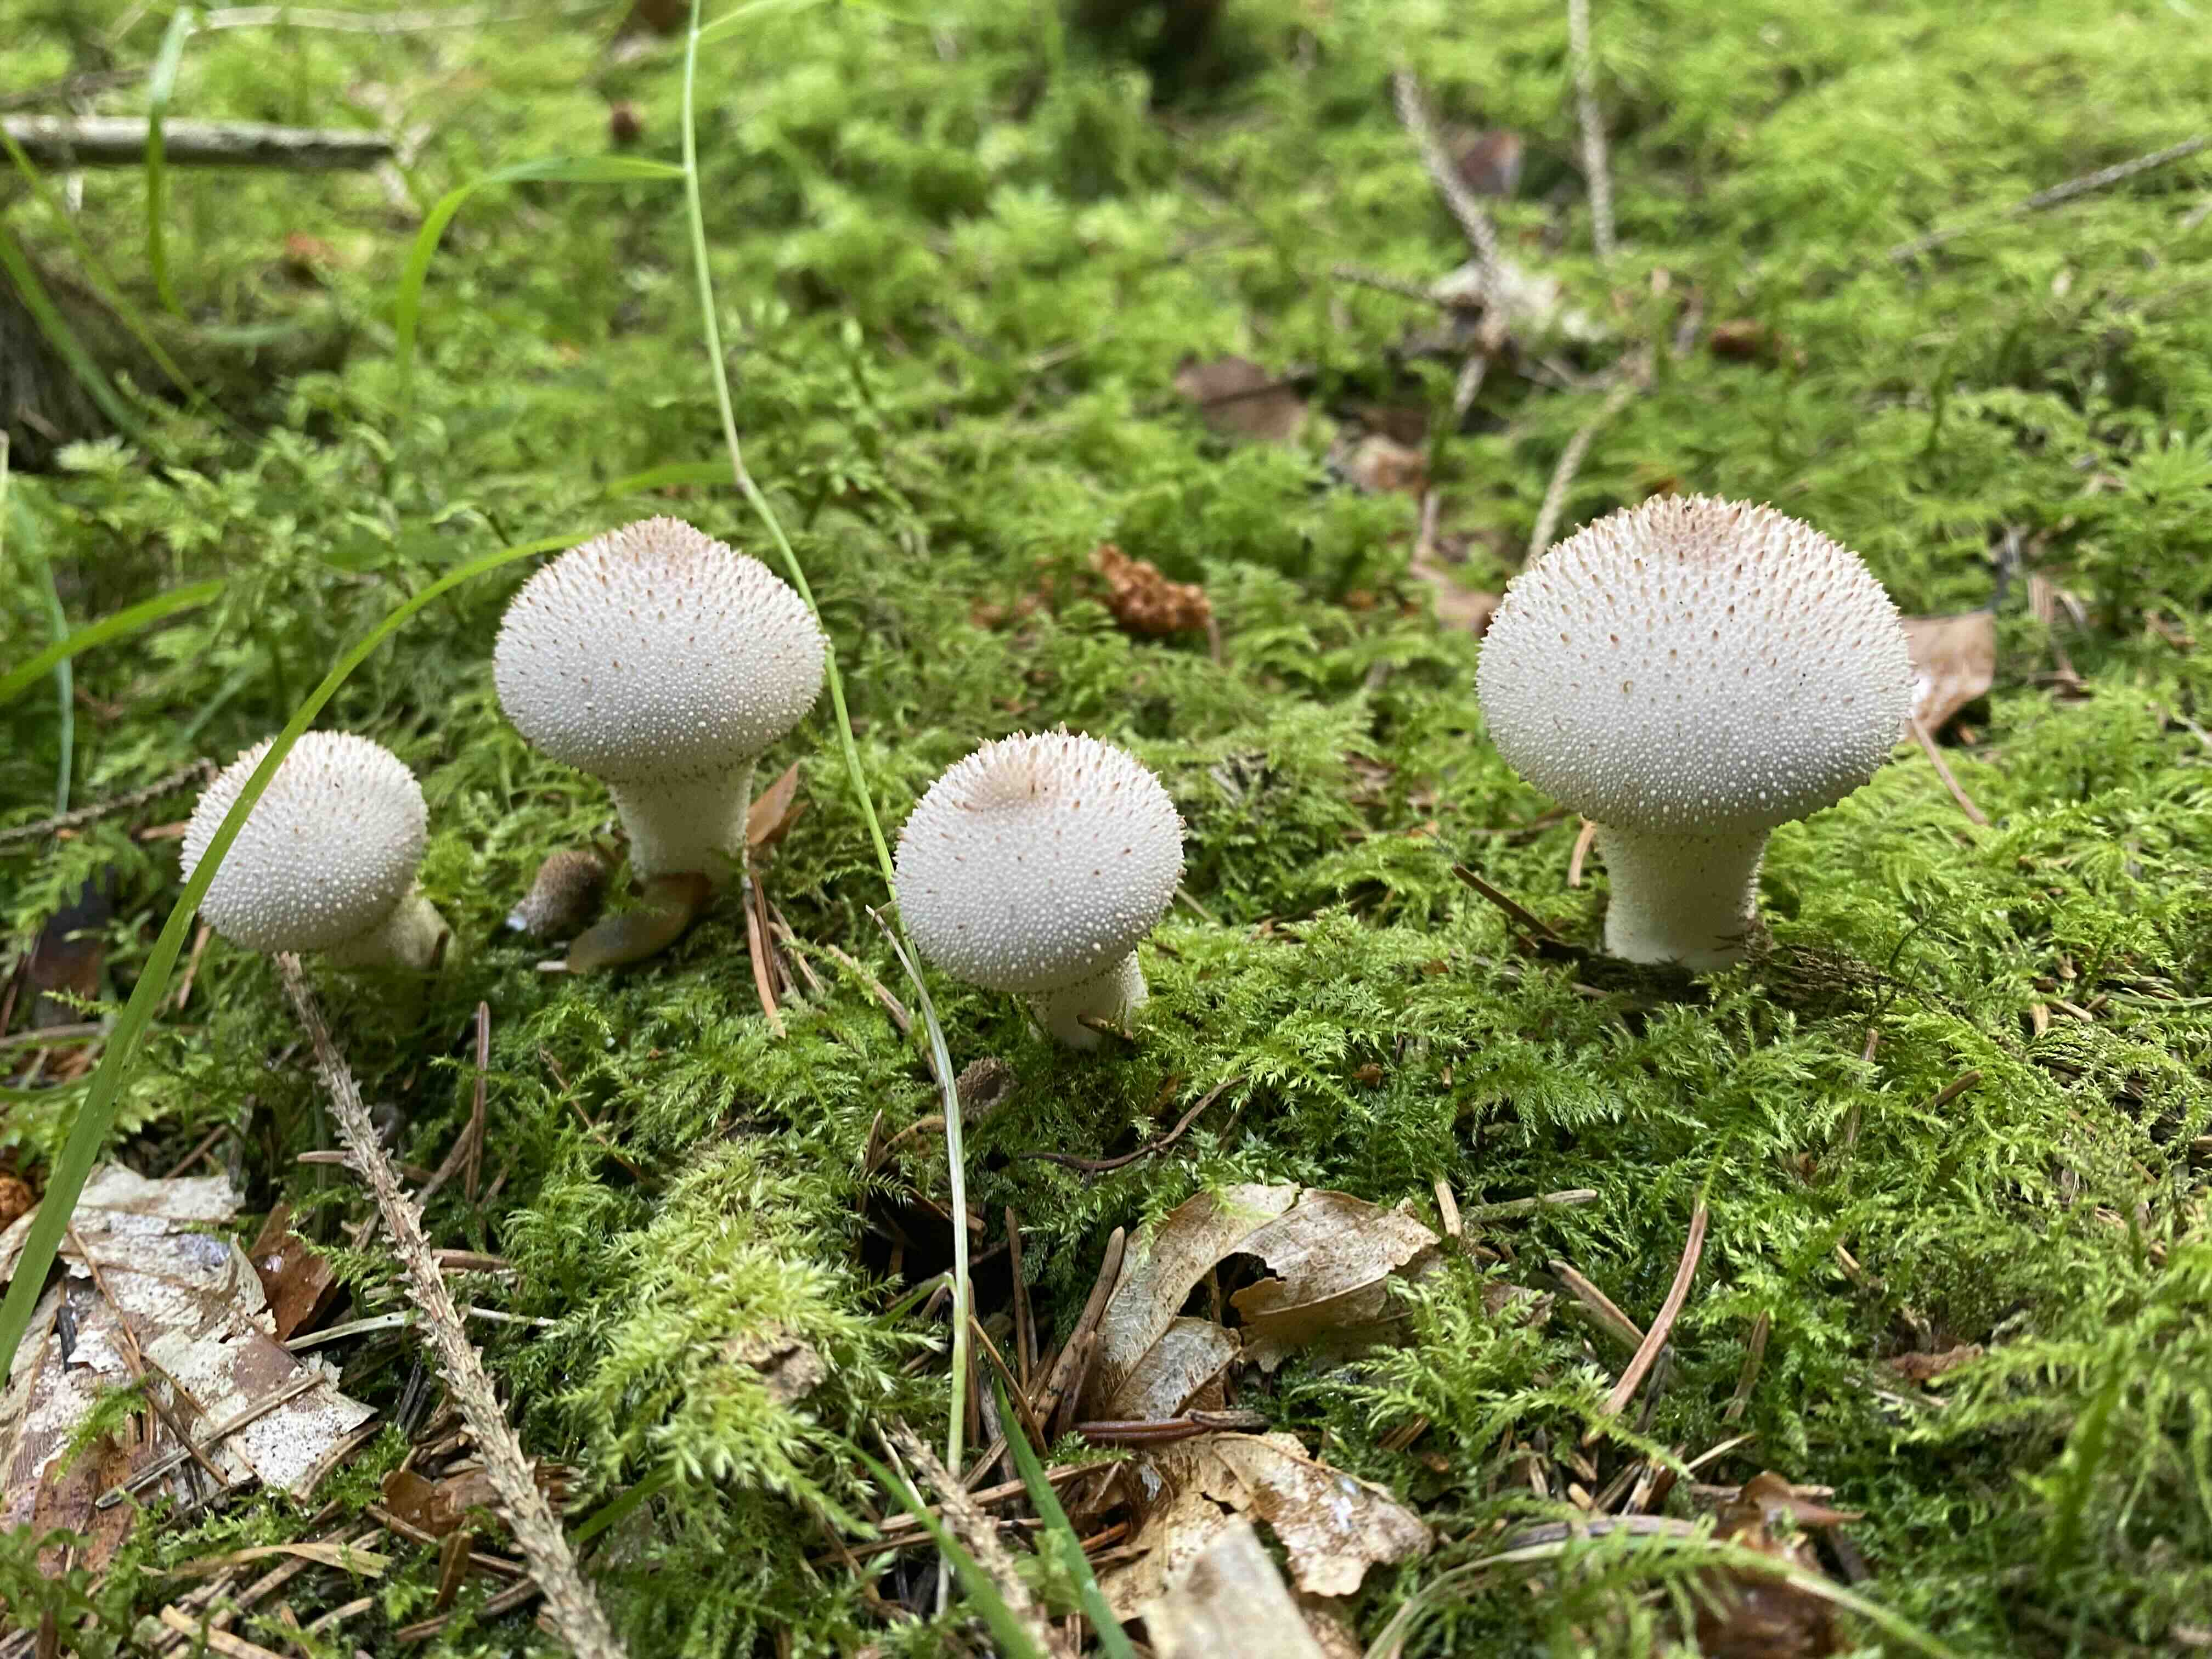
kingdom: Fungi
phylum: Basidiomycota
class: Agaricomycetes
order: Agaricales
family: Lycoperdaceae
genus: Lycoperdon
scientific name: Lycoperdon perlatum
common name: krystal-støvbold
